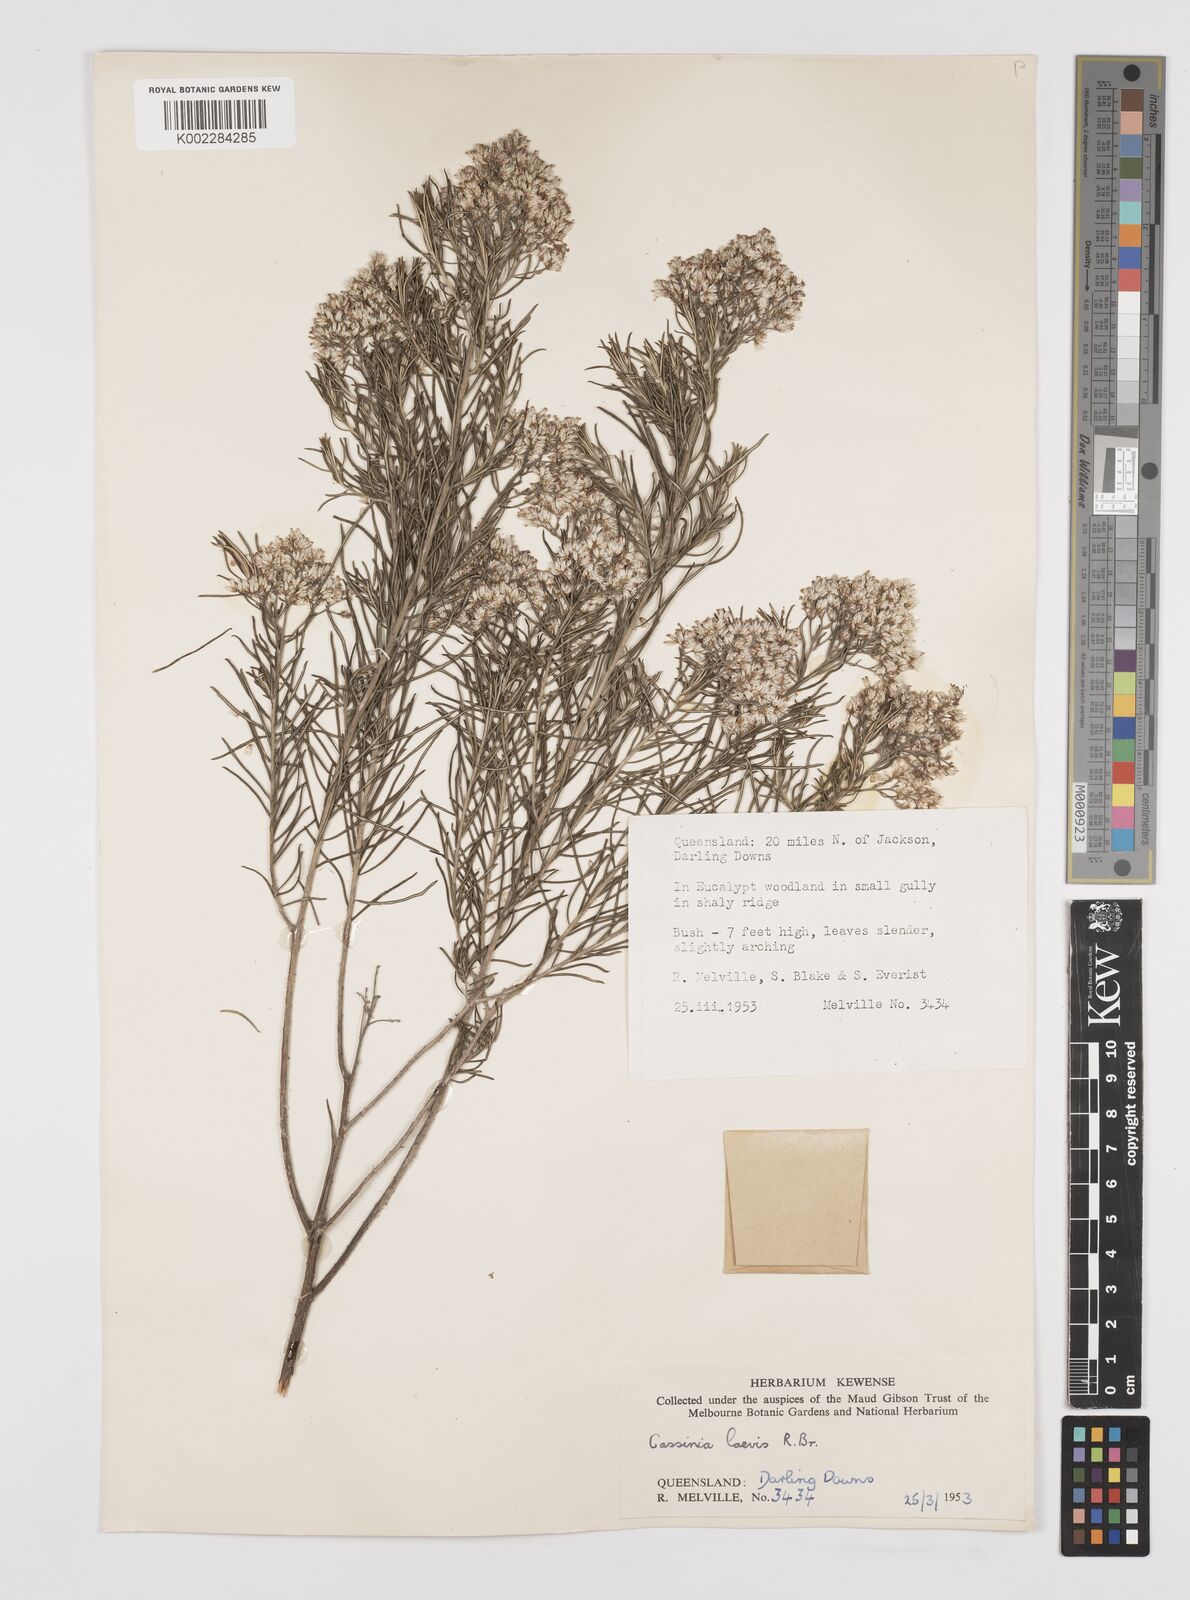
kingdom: Plantae
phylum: Tracheophyta
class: Magnoliopsida
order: Asterales
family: Asteraceae
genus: Cassinia
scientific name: Cassinia laevis
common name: Coughbush
